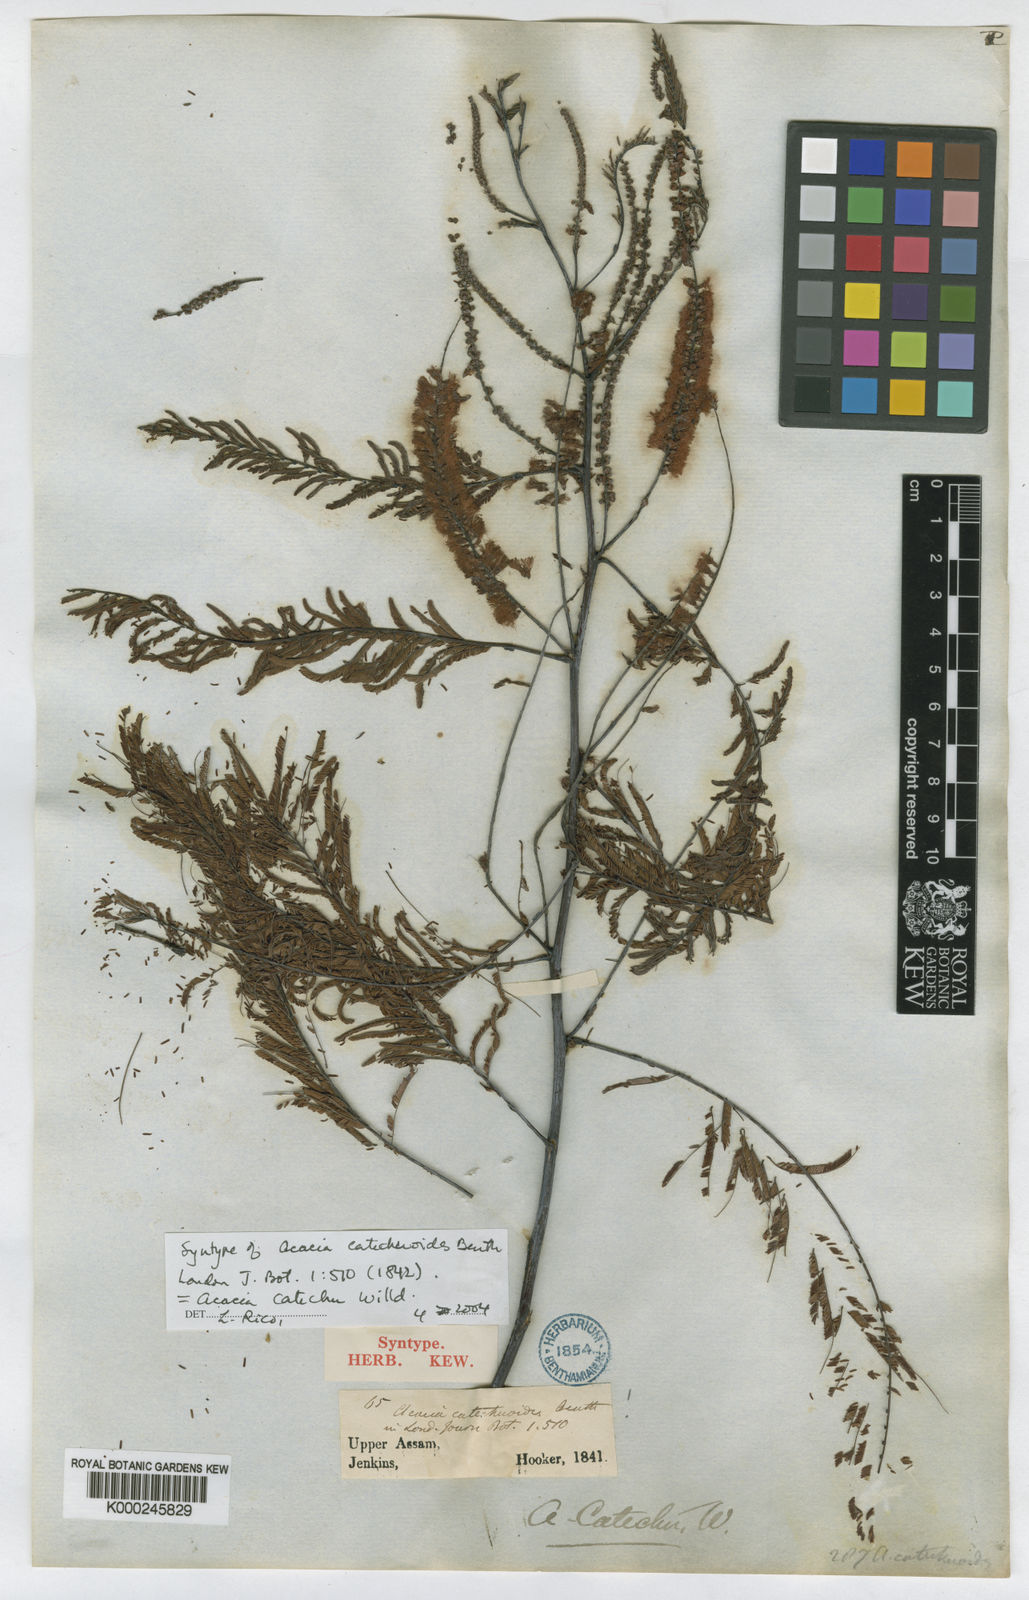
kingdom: Plantae
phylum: Tracheophyta
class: Magnoliopsida
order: Fabales
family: Fabaceae
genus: Senegalia
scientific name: Senegalia catechu
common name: Black cutch
